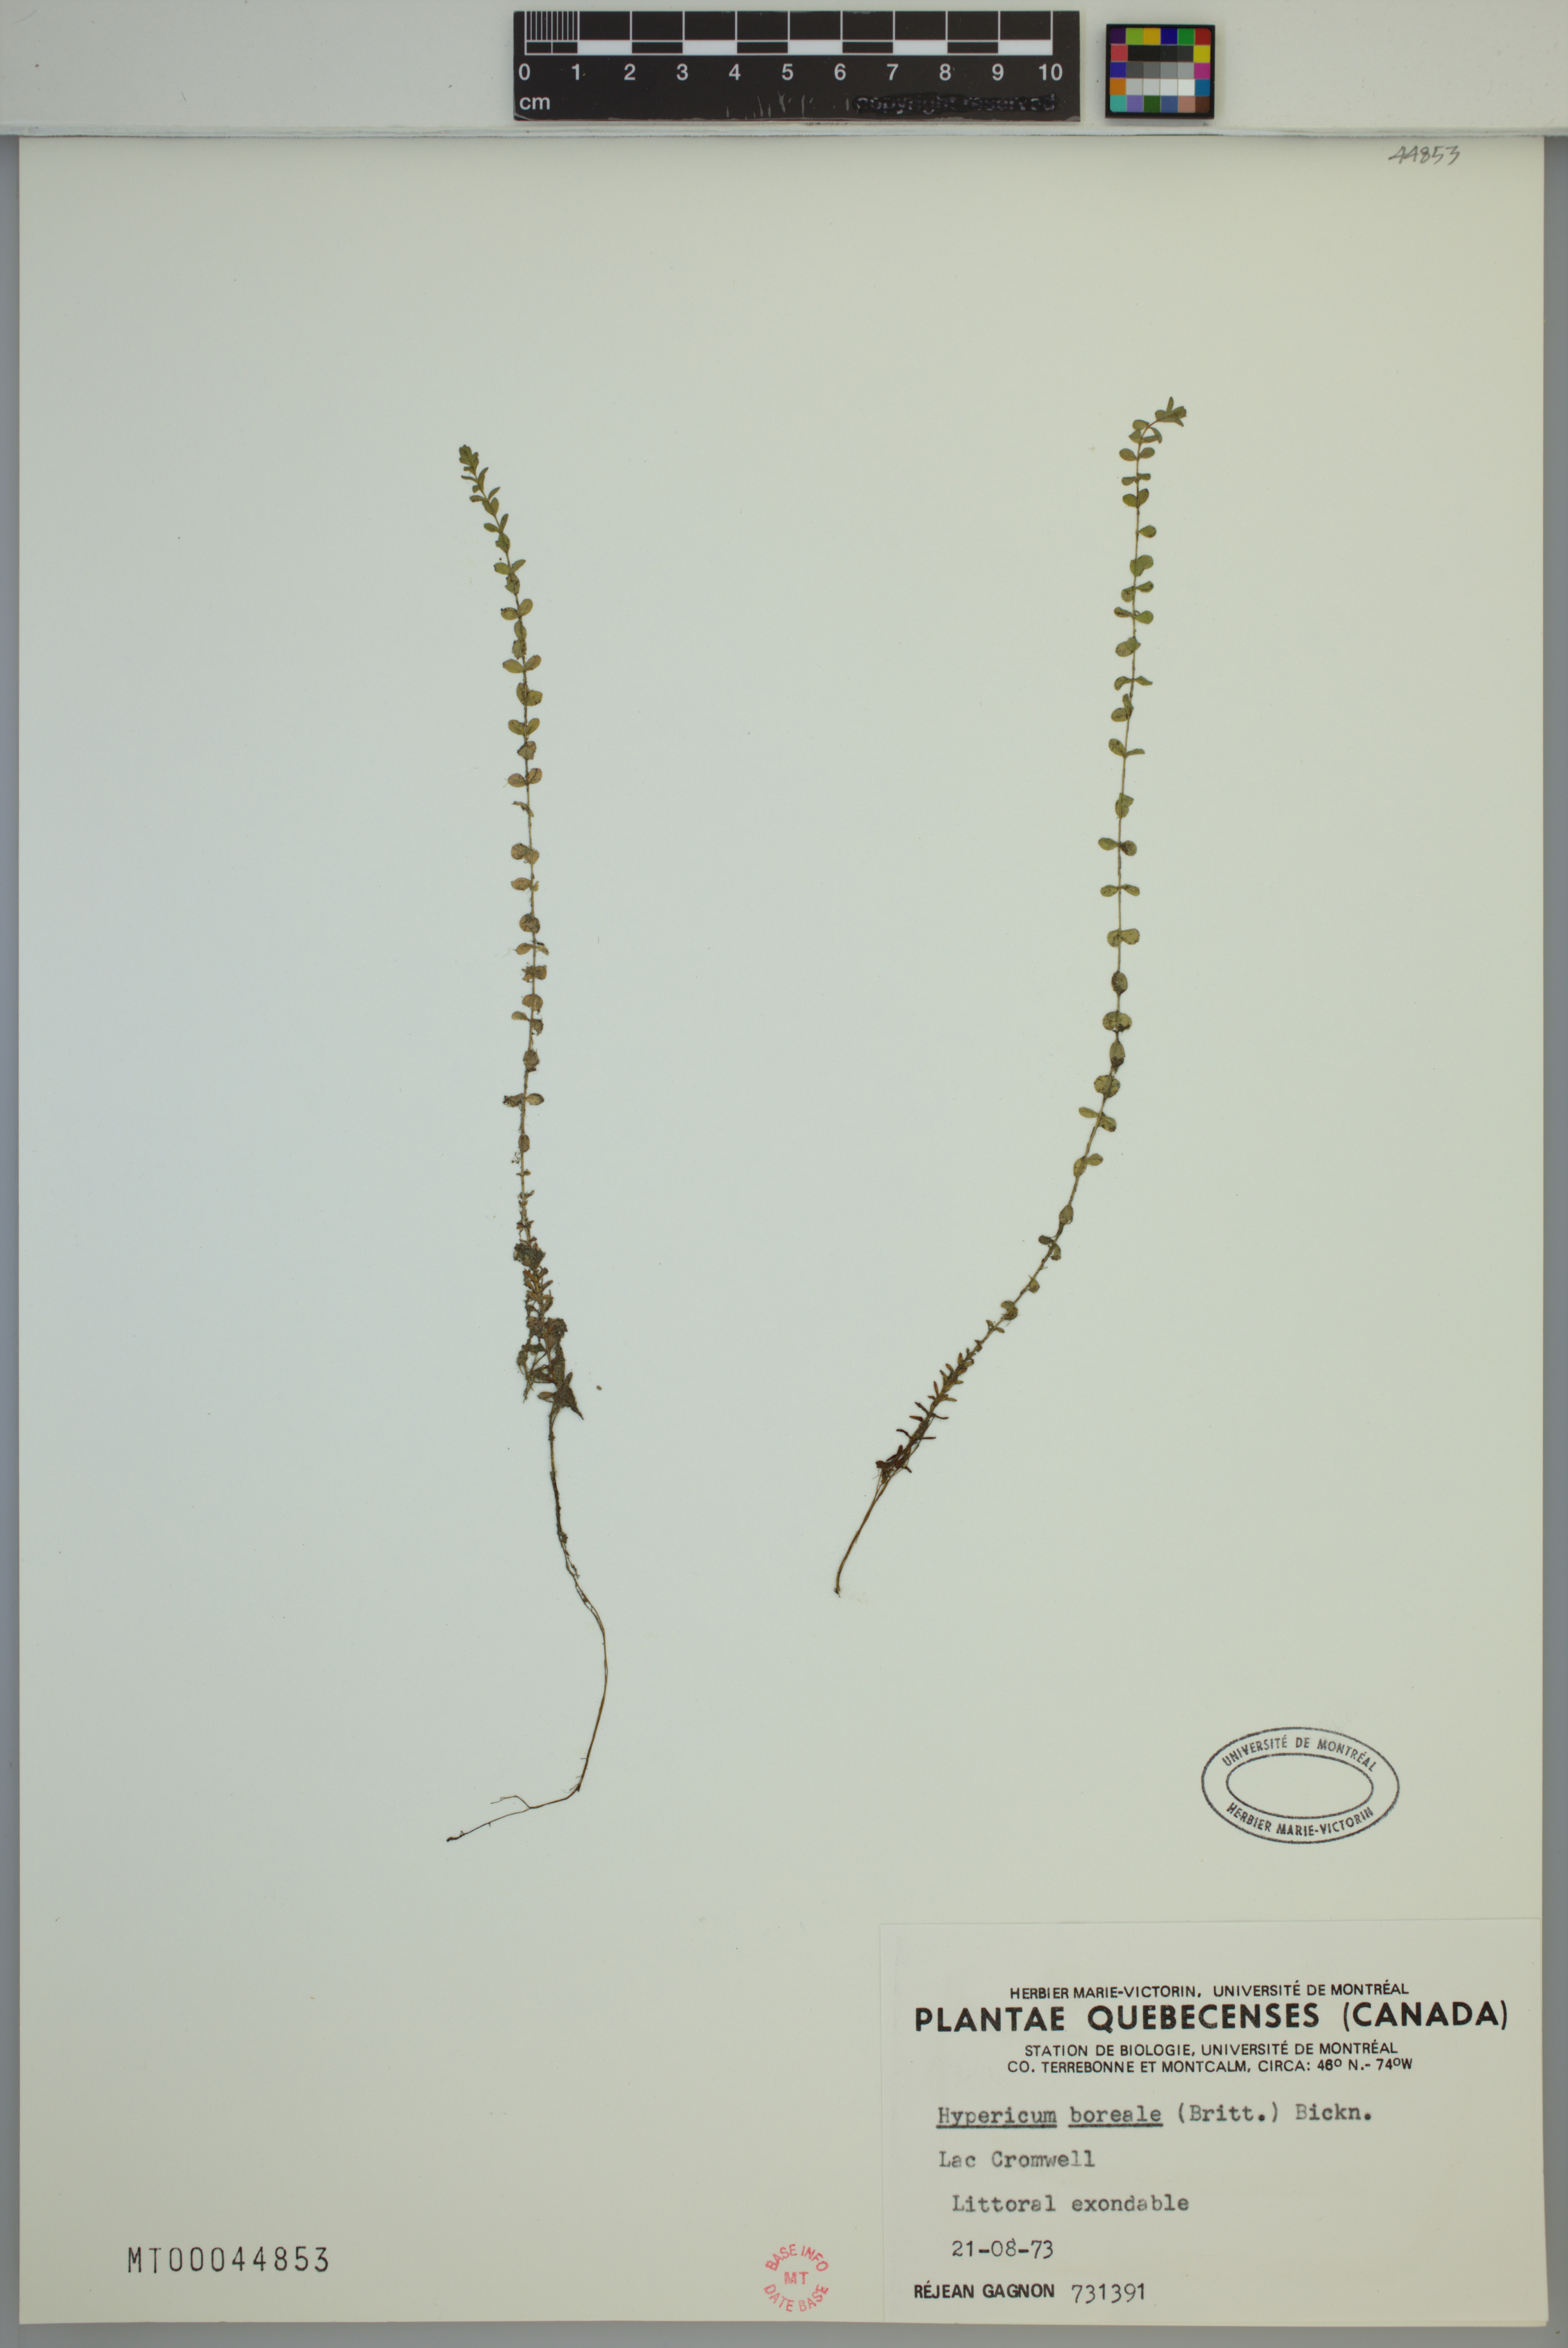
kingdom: Plantae
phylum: Tracheophyta
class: Magnoliopsida
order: Malpighiales
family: Hypericaceae
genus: Hypericum
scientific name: Hypericum boreale
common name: Northern bog st. john's-wort
